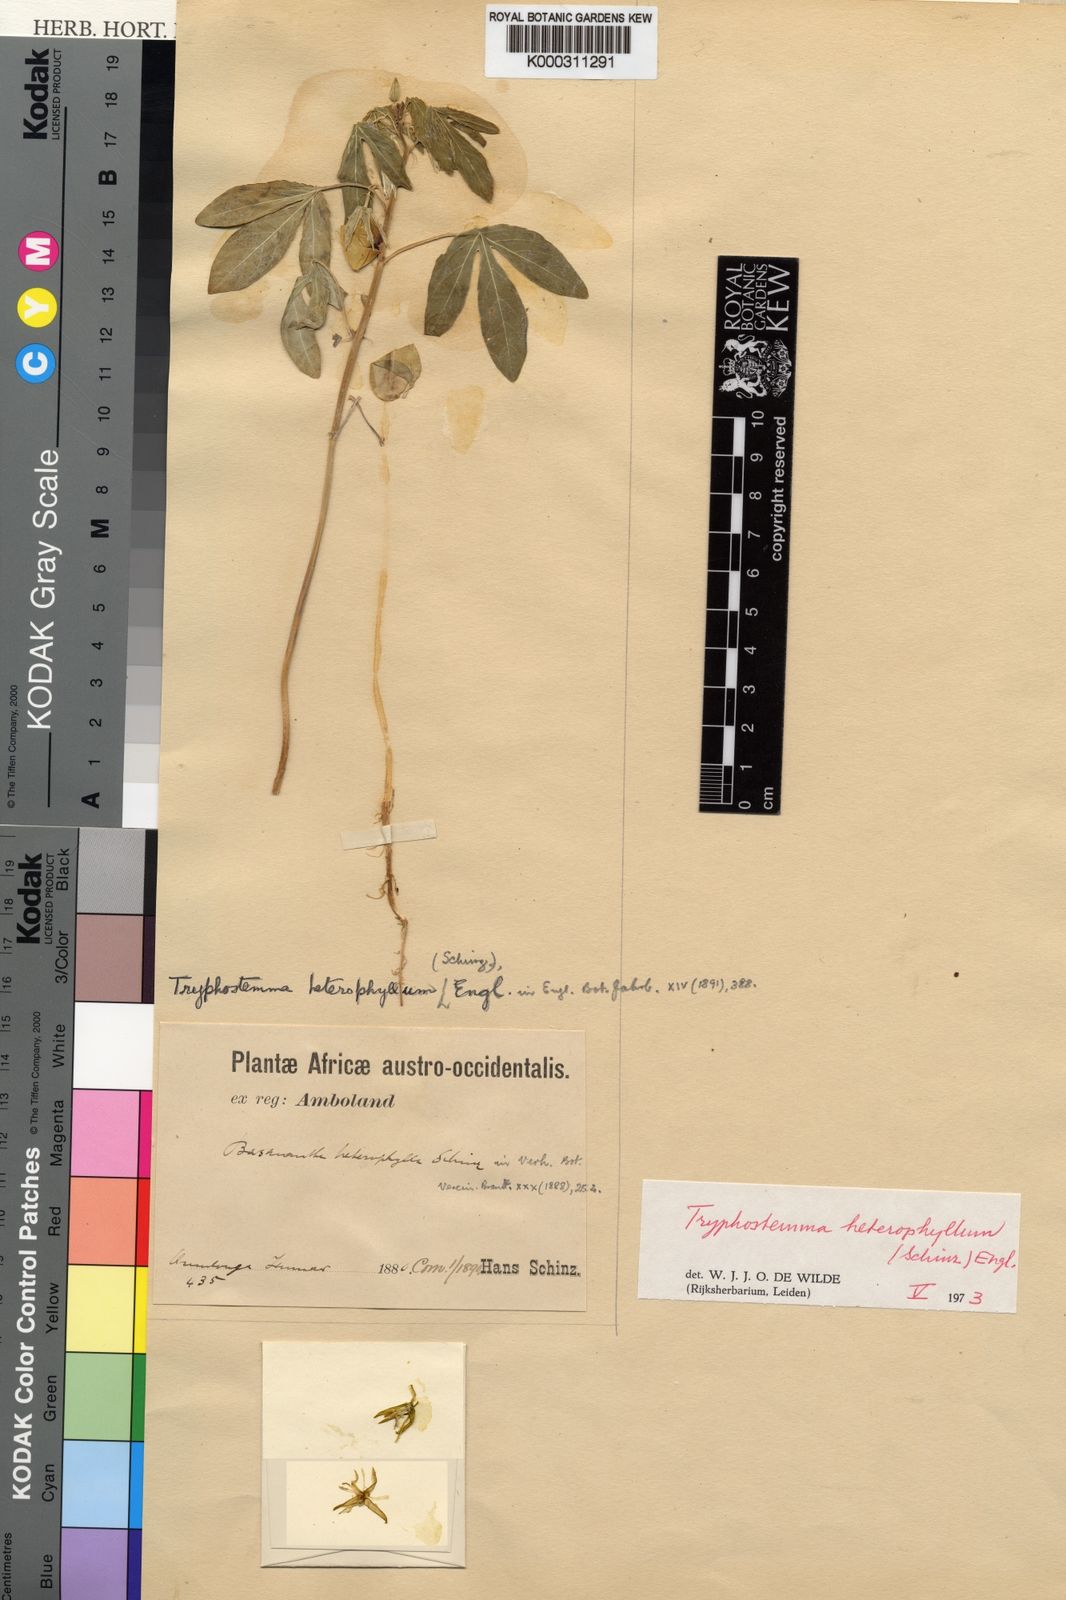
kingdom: Plantae
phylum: Tracheophyta
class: Magnoliopsida
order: Malpighiales
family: Passifloraceae
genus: Basananthe
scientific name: Basananthe heterophylla
